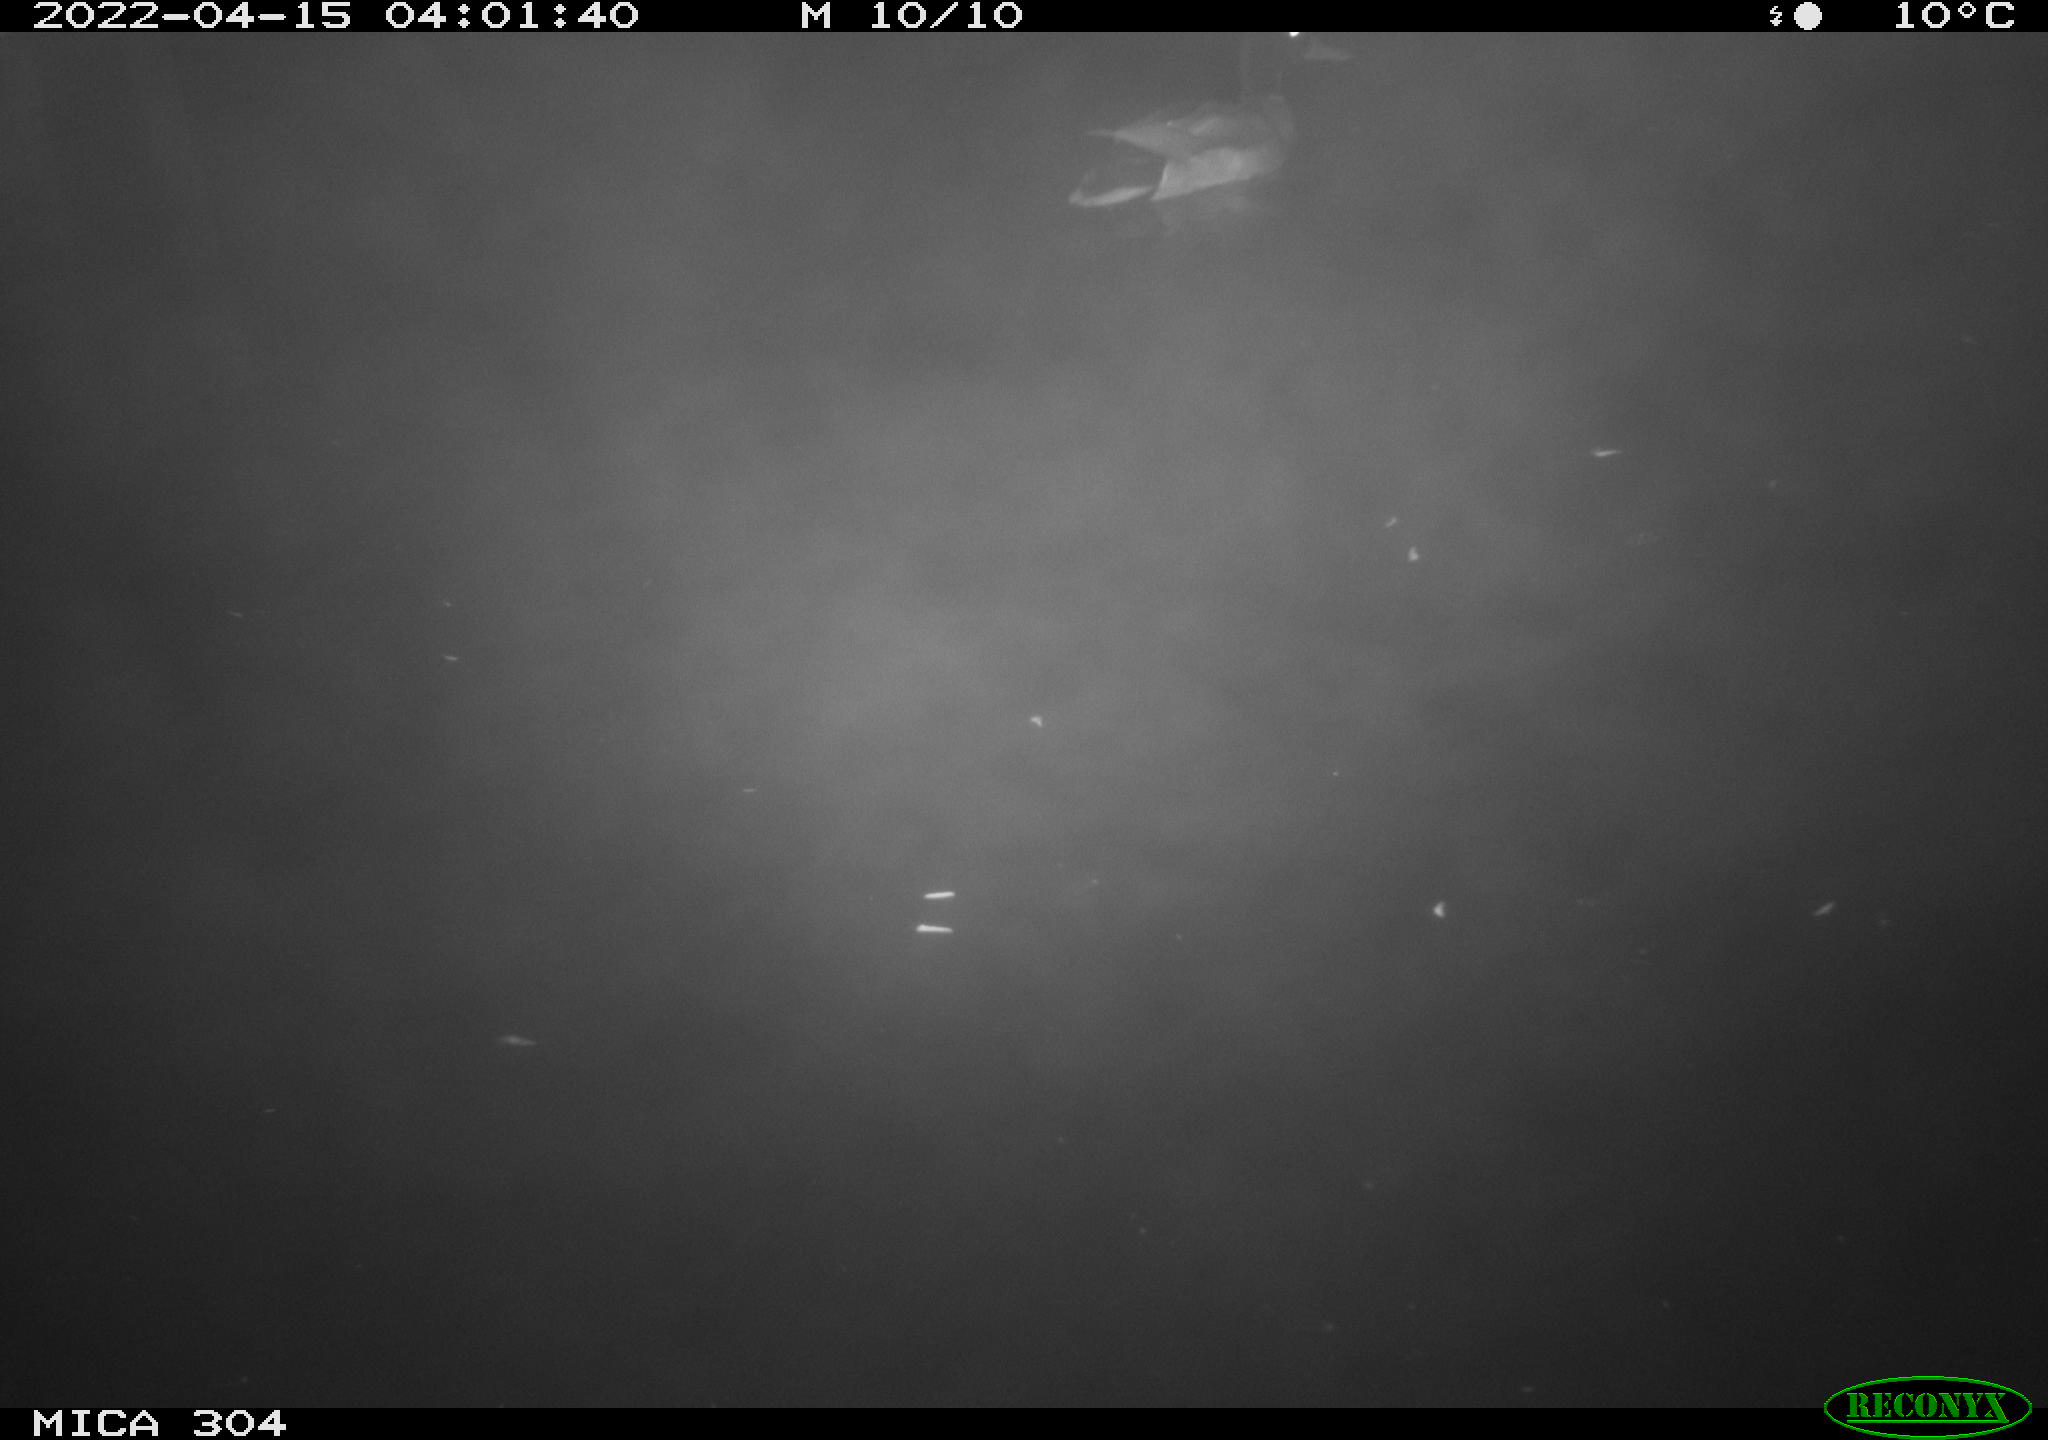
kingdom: Animalia
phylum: Chordata
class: Aves
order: Anseriformes
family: Anatidae
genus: Anas
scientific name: Anas platyrhynchos
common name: Mallard
